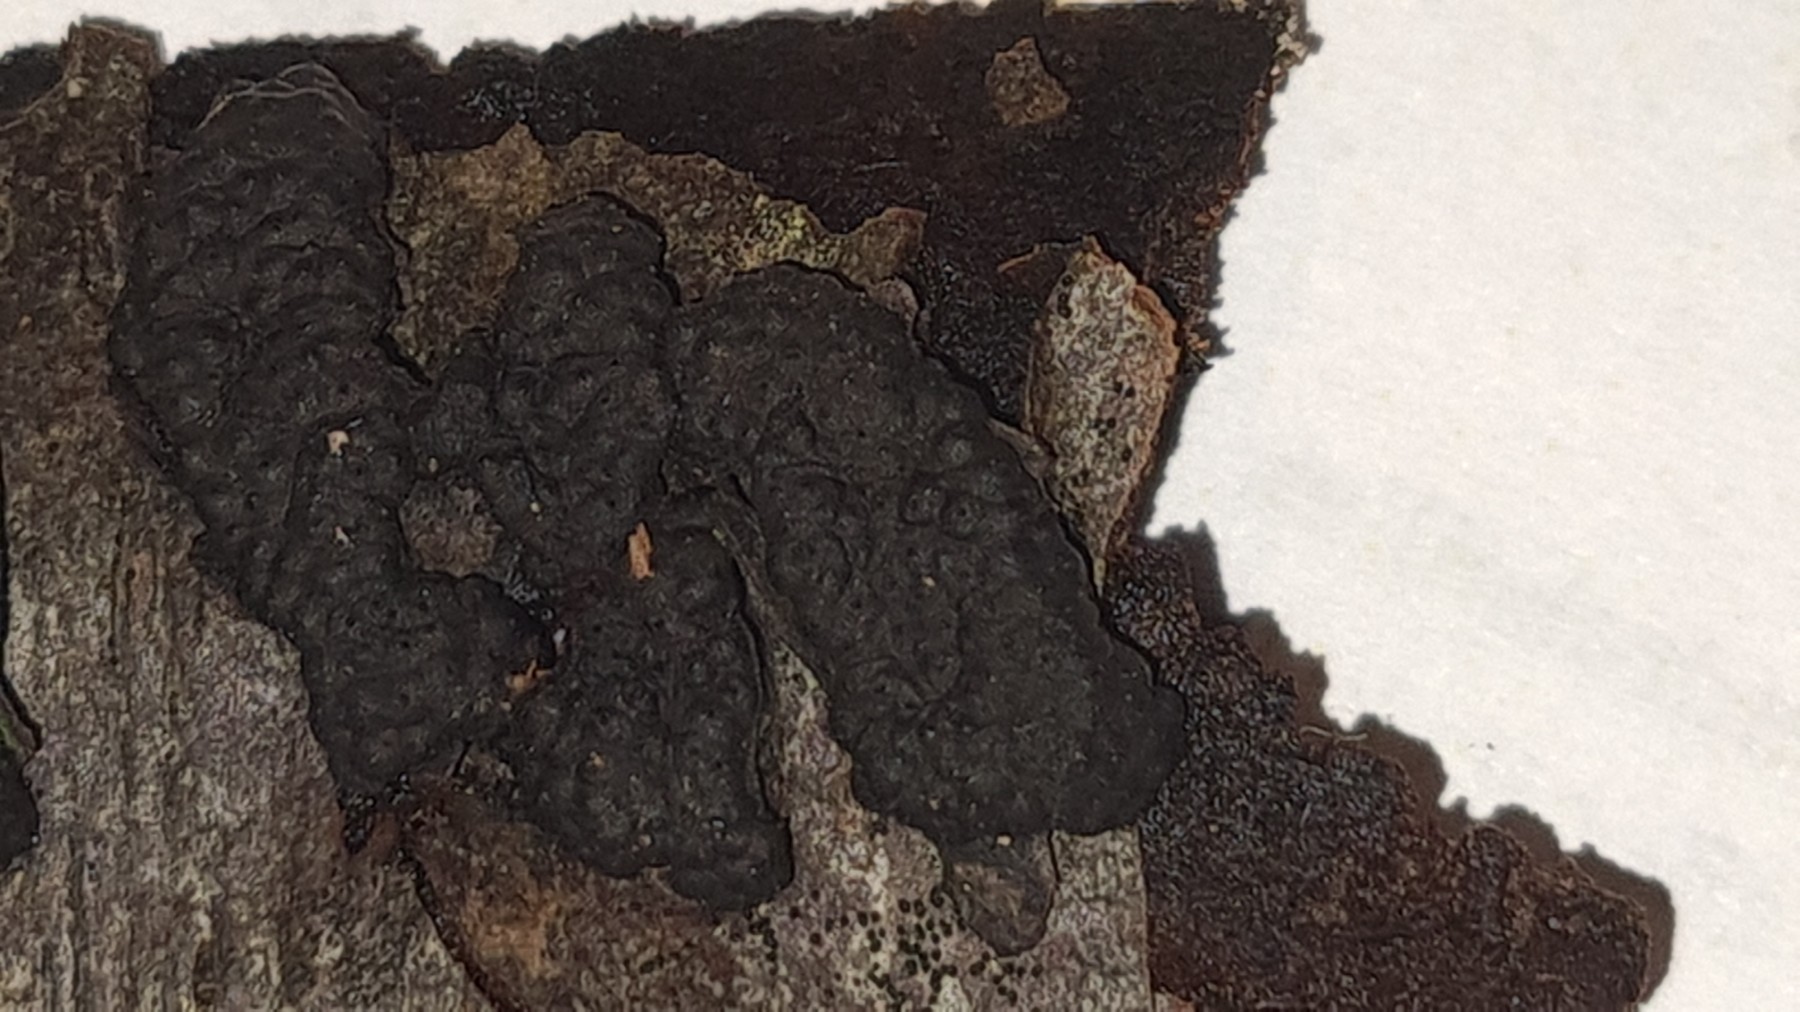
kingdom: Fungi
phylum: Ascomycota
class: Sordariomycetes
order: Xylariales
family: Hypoxylaceae
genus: Jackrogersella
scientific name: Jackrogersella multiformis
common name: foranderlig kulbær
